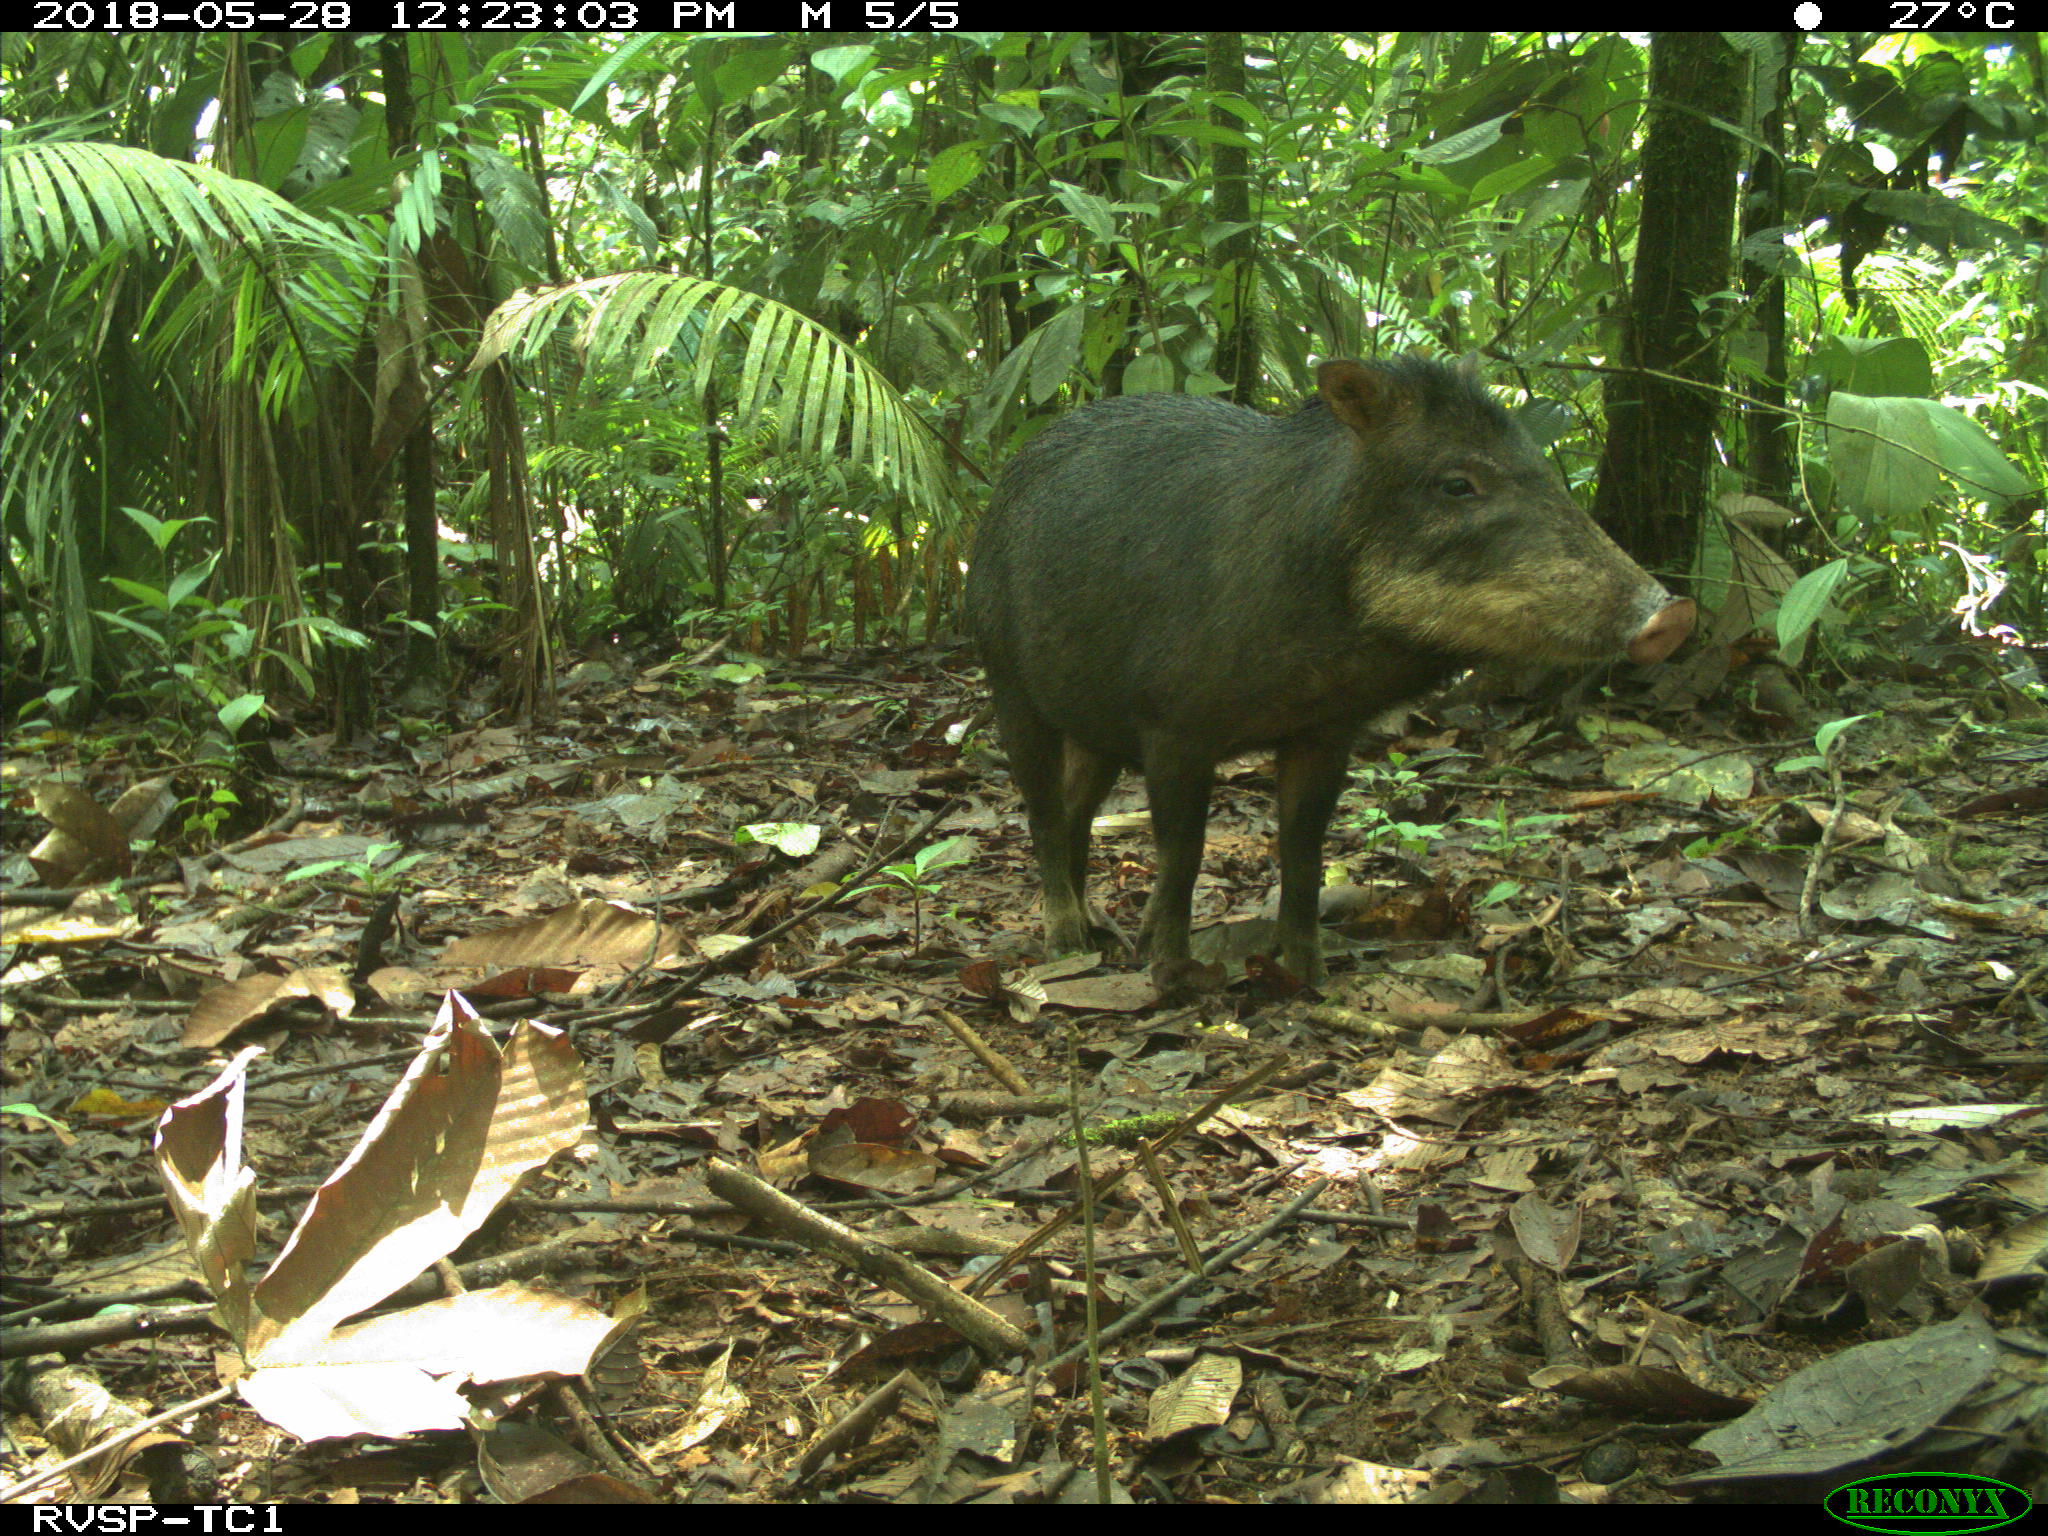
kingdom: Animalia
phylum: Chordata
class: Mammalia
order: Artiodactyla
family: Tayassuidae
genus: Tayassu
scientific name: Tayassu pecari
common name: White-lipped peccary
